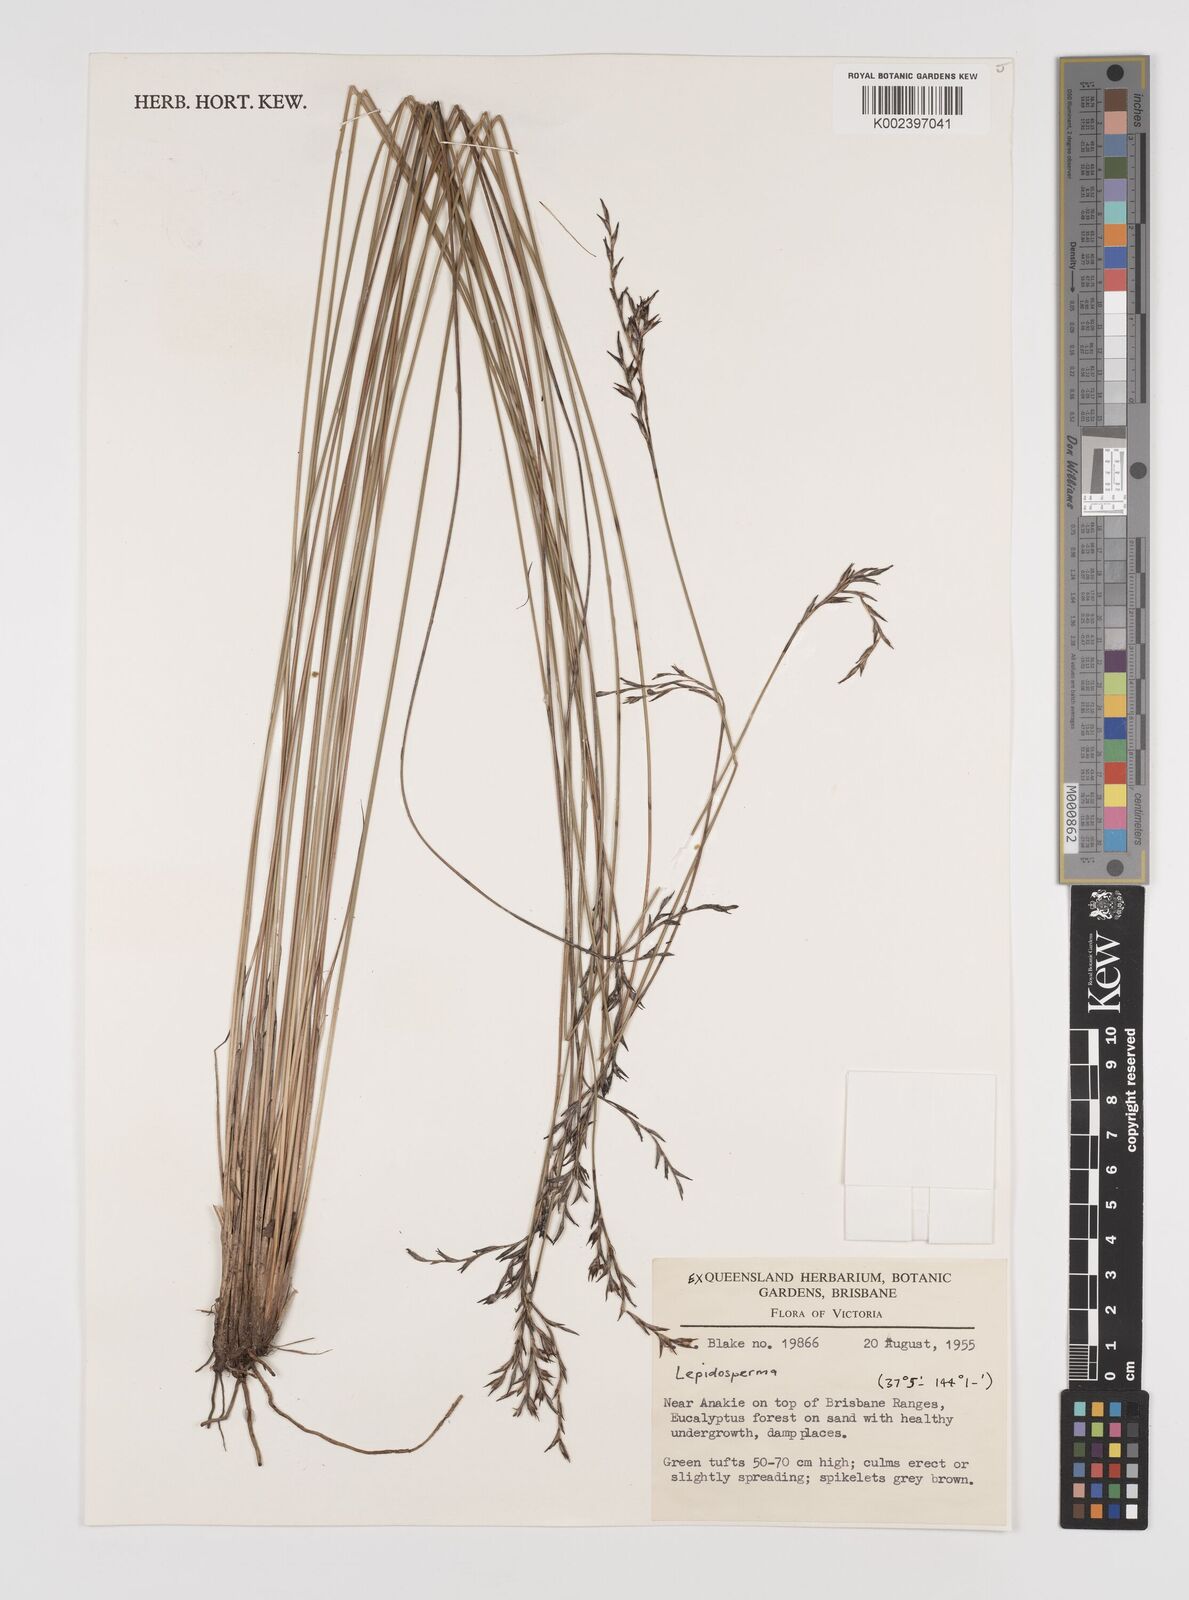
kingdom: Plantae
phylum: Tracheophyta
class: Liliopsida
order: Poales
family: Cyperaceae
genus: Lepidosperma
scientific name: Lepidosperma semiteres
